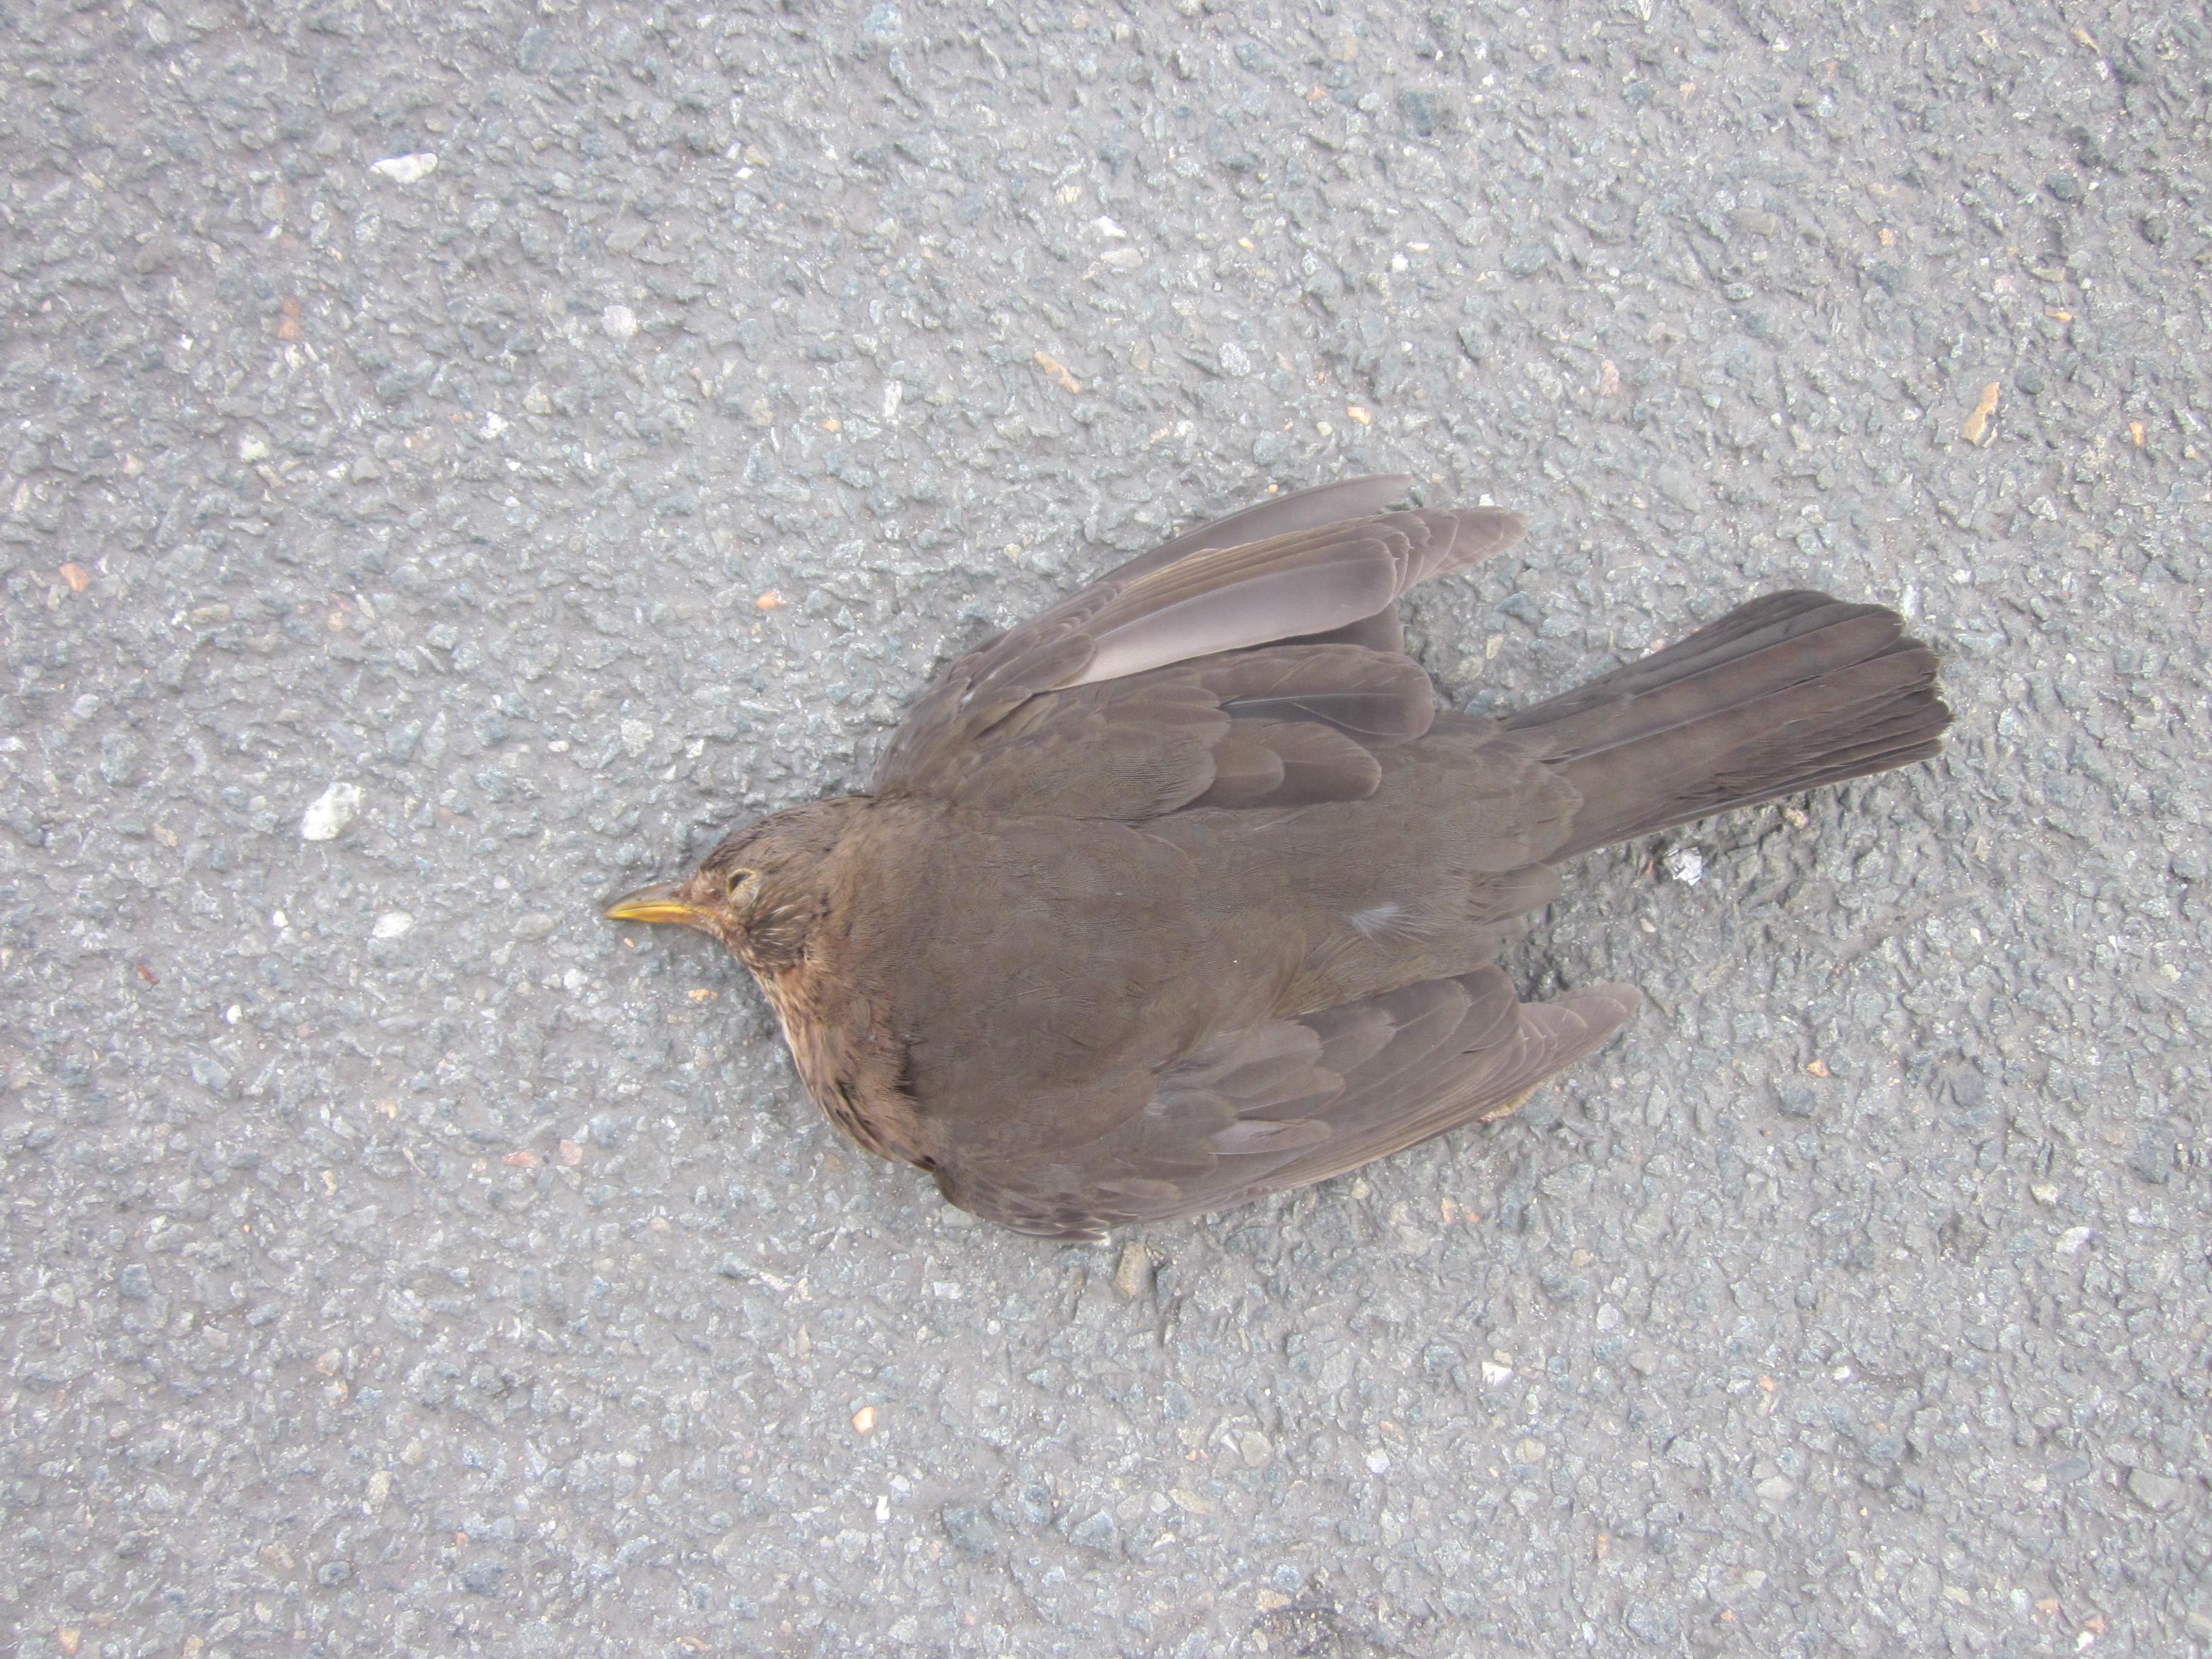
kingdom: Animalia
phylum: Chordata
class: Aves
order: Passeriformes
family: Turdidae
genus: Turdus
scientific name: Turdus merula
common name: Common blackbird
